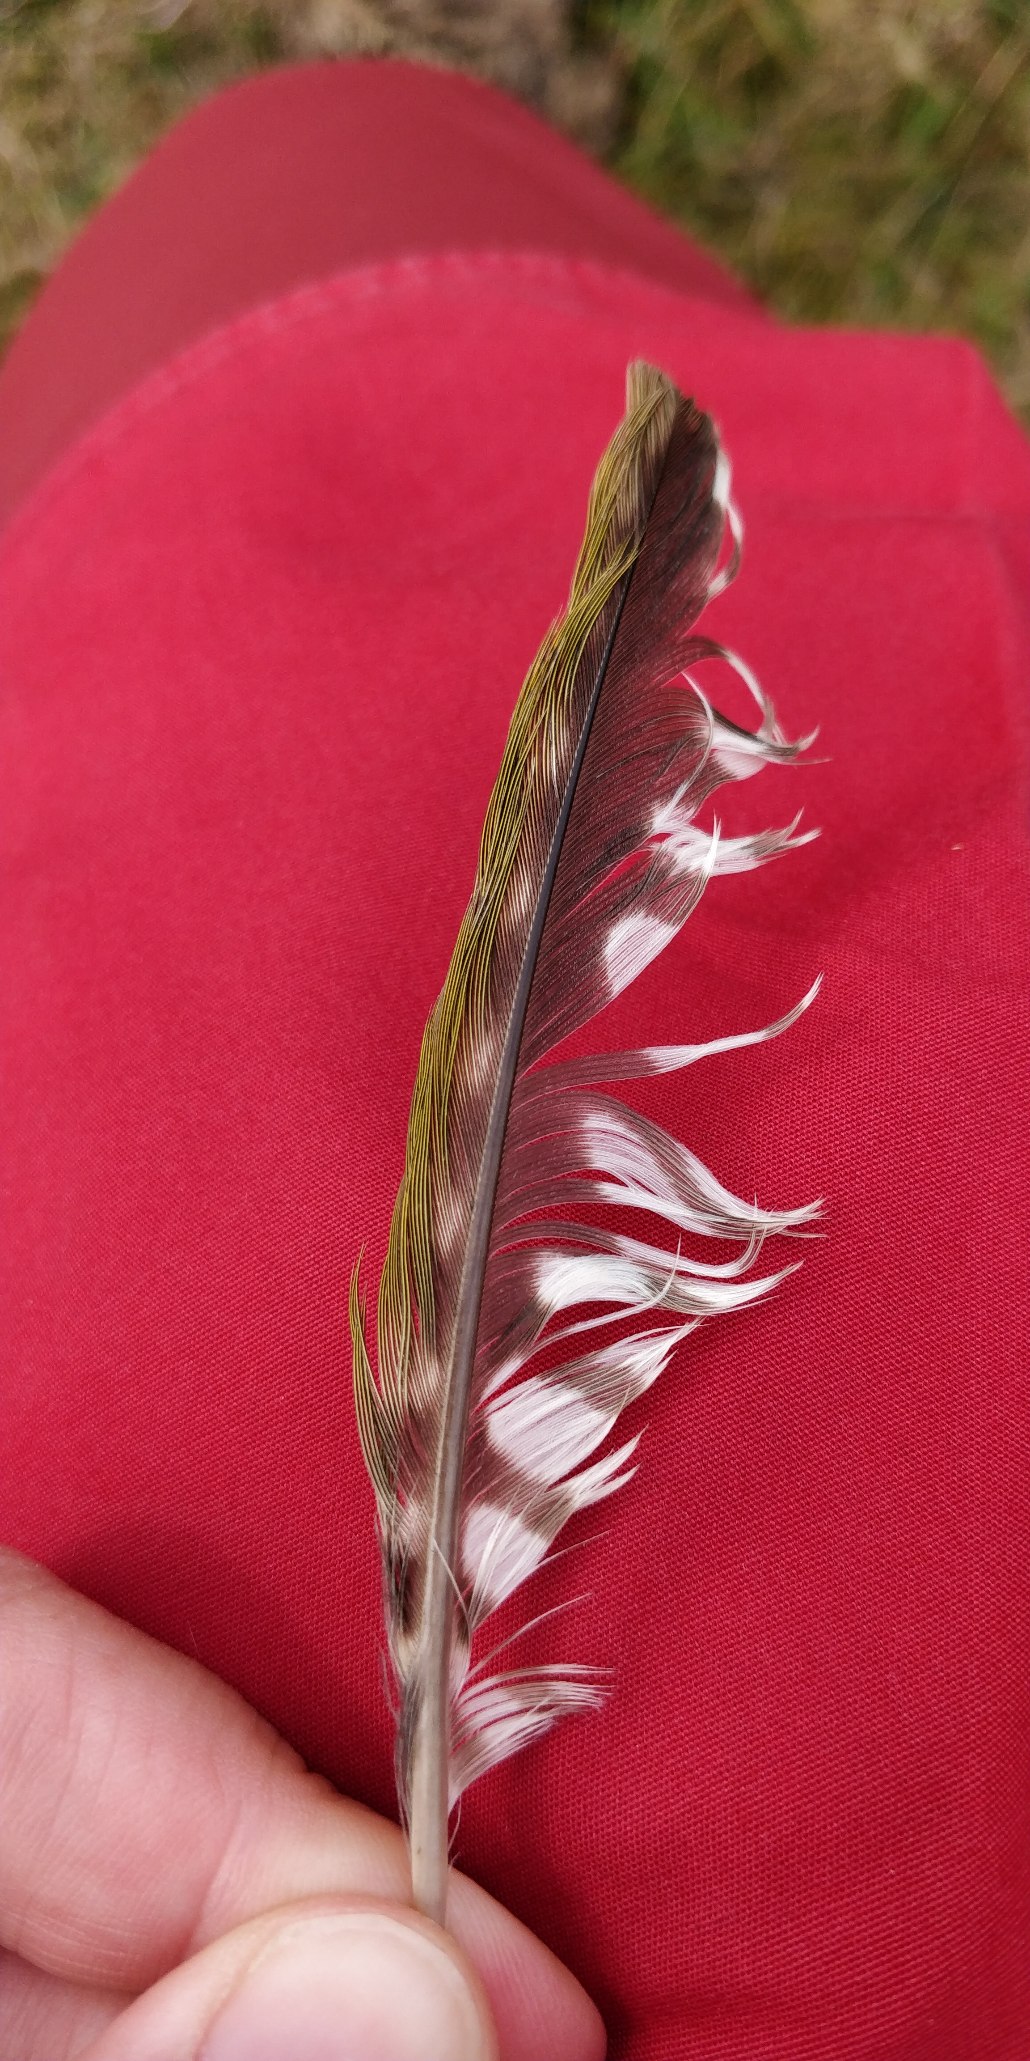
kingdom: Animalia
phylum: Chordata
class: Aves
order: Piciformes
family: Picidae
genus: Picus
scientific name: Picus viridis
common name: Grønspætte
